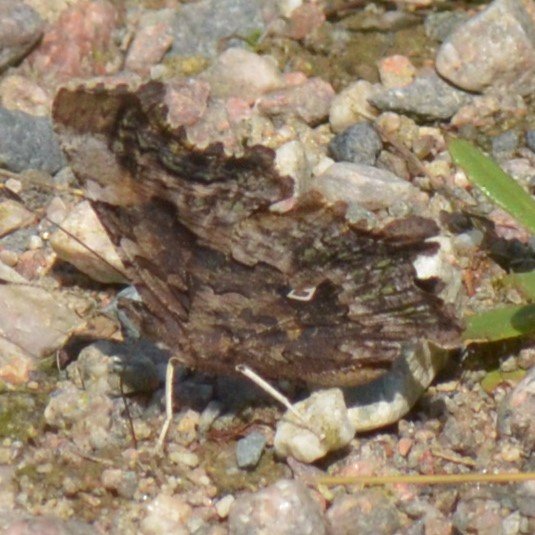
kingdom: Animalia
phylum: Arthropoda
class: Insecta
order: Lepidoptera
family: Nymphalidae
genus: Polygonia
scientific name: Polygonia faunus
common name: Green Comma
